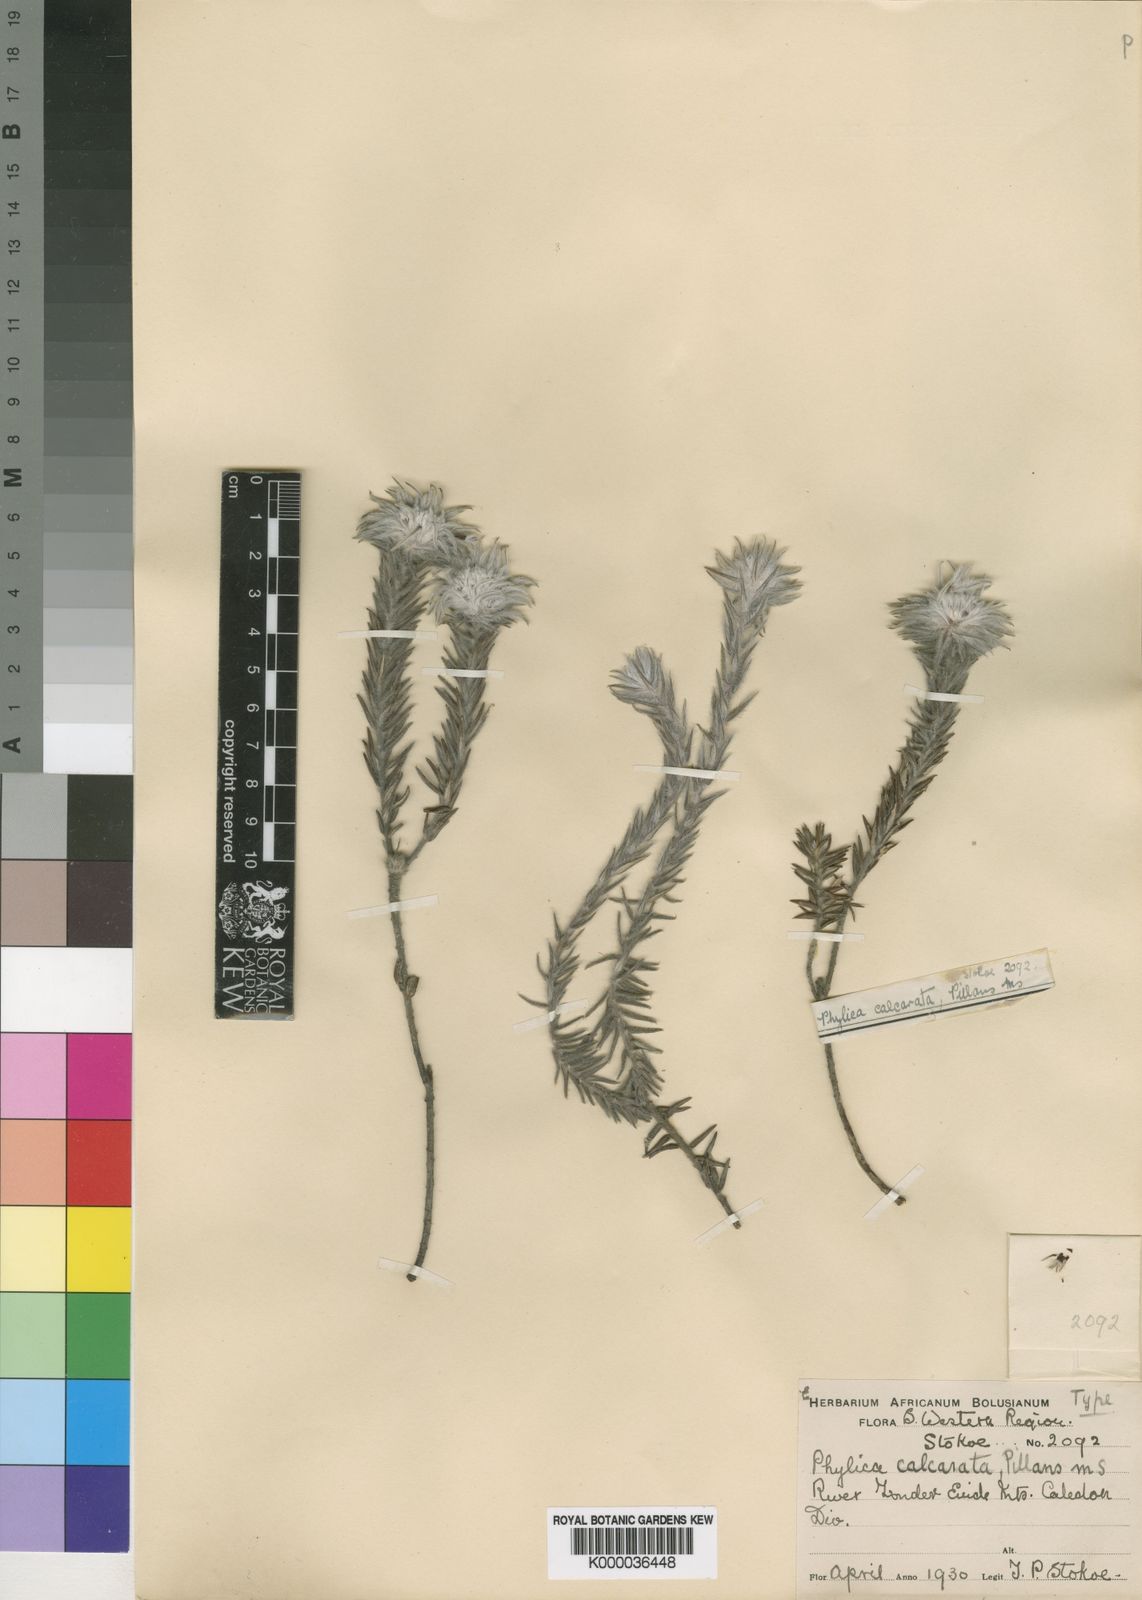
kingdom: Plantae
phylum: Tracheophyta
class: Magnoliopsida
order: Rosales
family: Rhamnaceae
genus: Phylica
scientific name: Phylica calcarata
